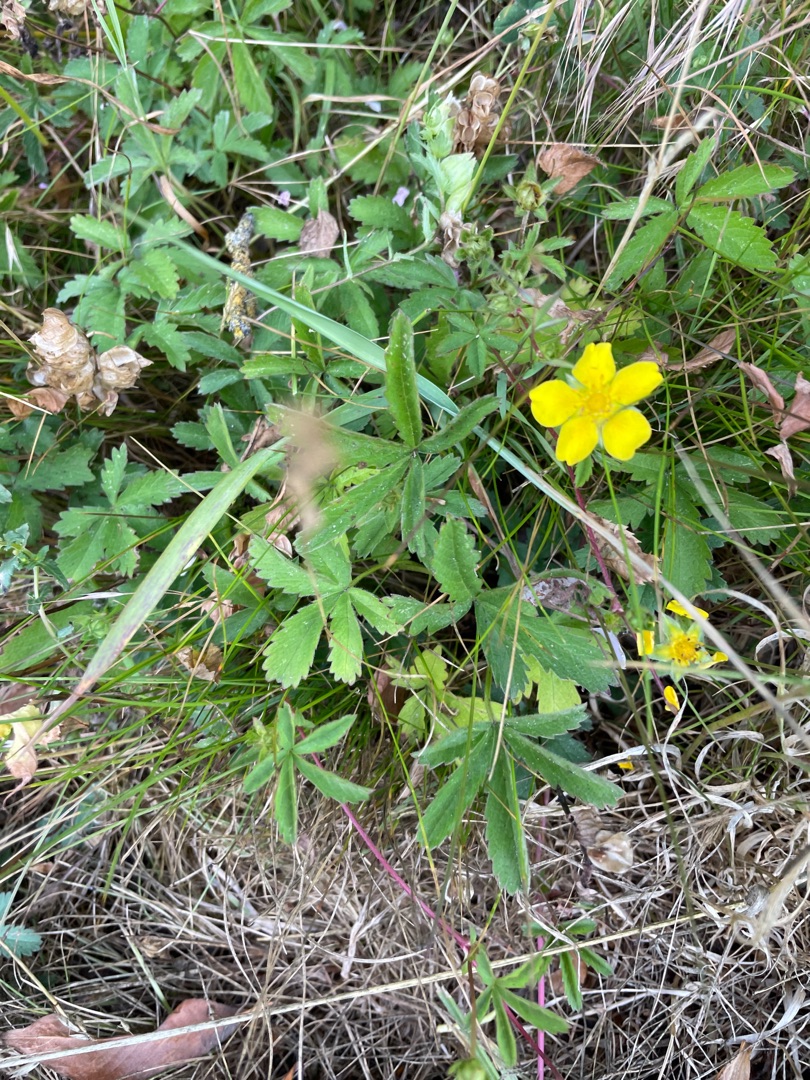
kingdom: Plantae
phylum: Tracheophyta
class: Magnoliopsida
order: Rosales
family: Rosaceae
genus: Potentilla
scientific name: Potentilla reptans
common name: Krybende potentil
